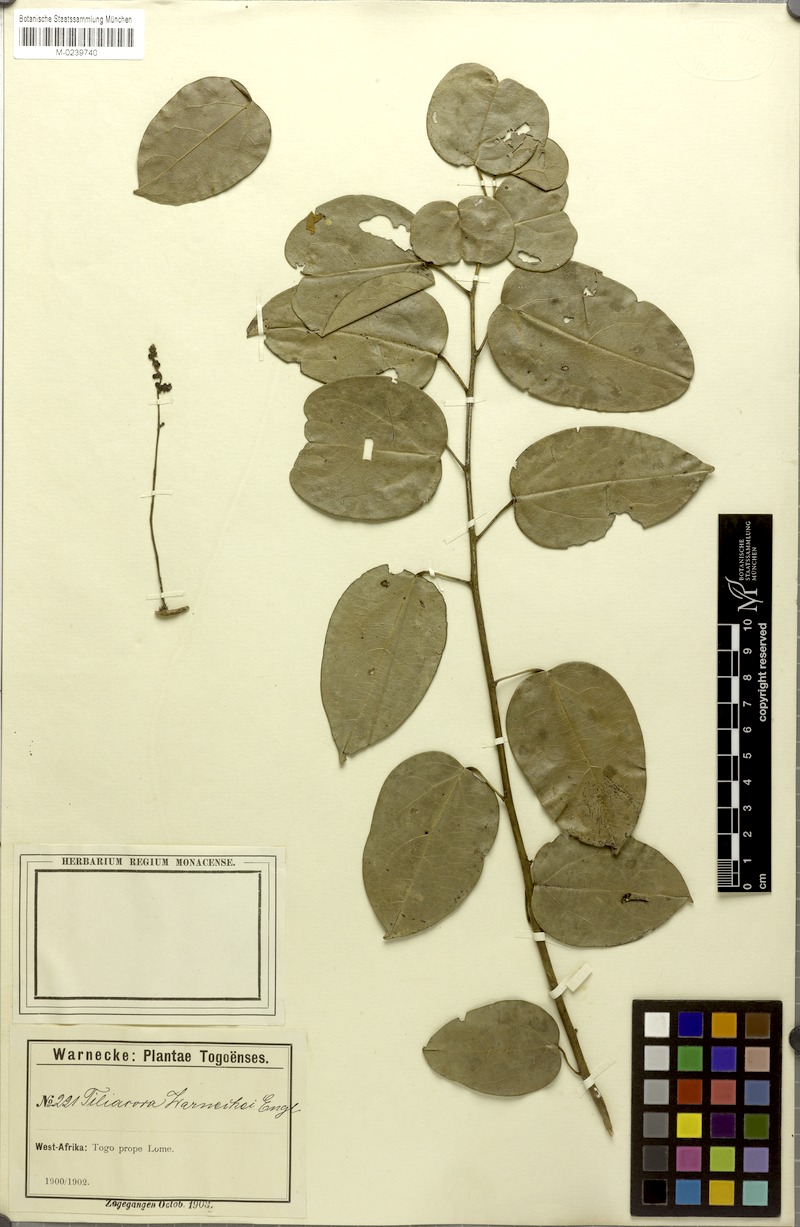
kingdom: Plantae
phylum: Tracheophyta
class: Magnoliopsida
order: Ranunculales
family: Menispermaceae
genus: Tiliacora
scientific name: Tiliacora funifera
